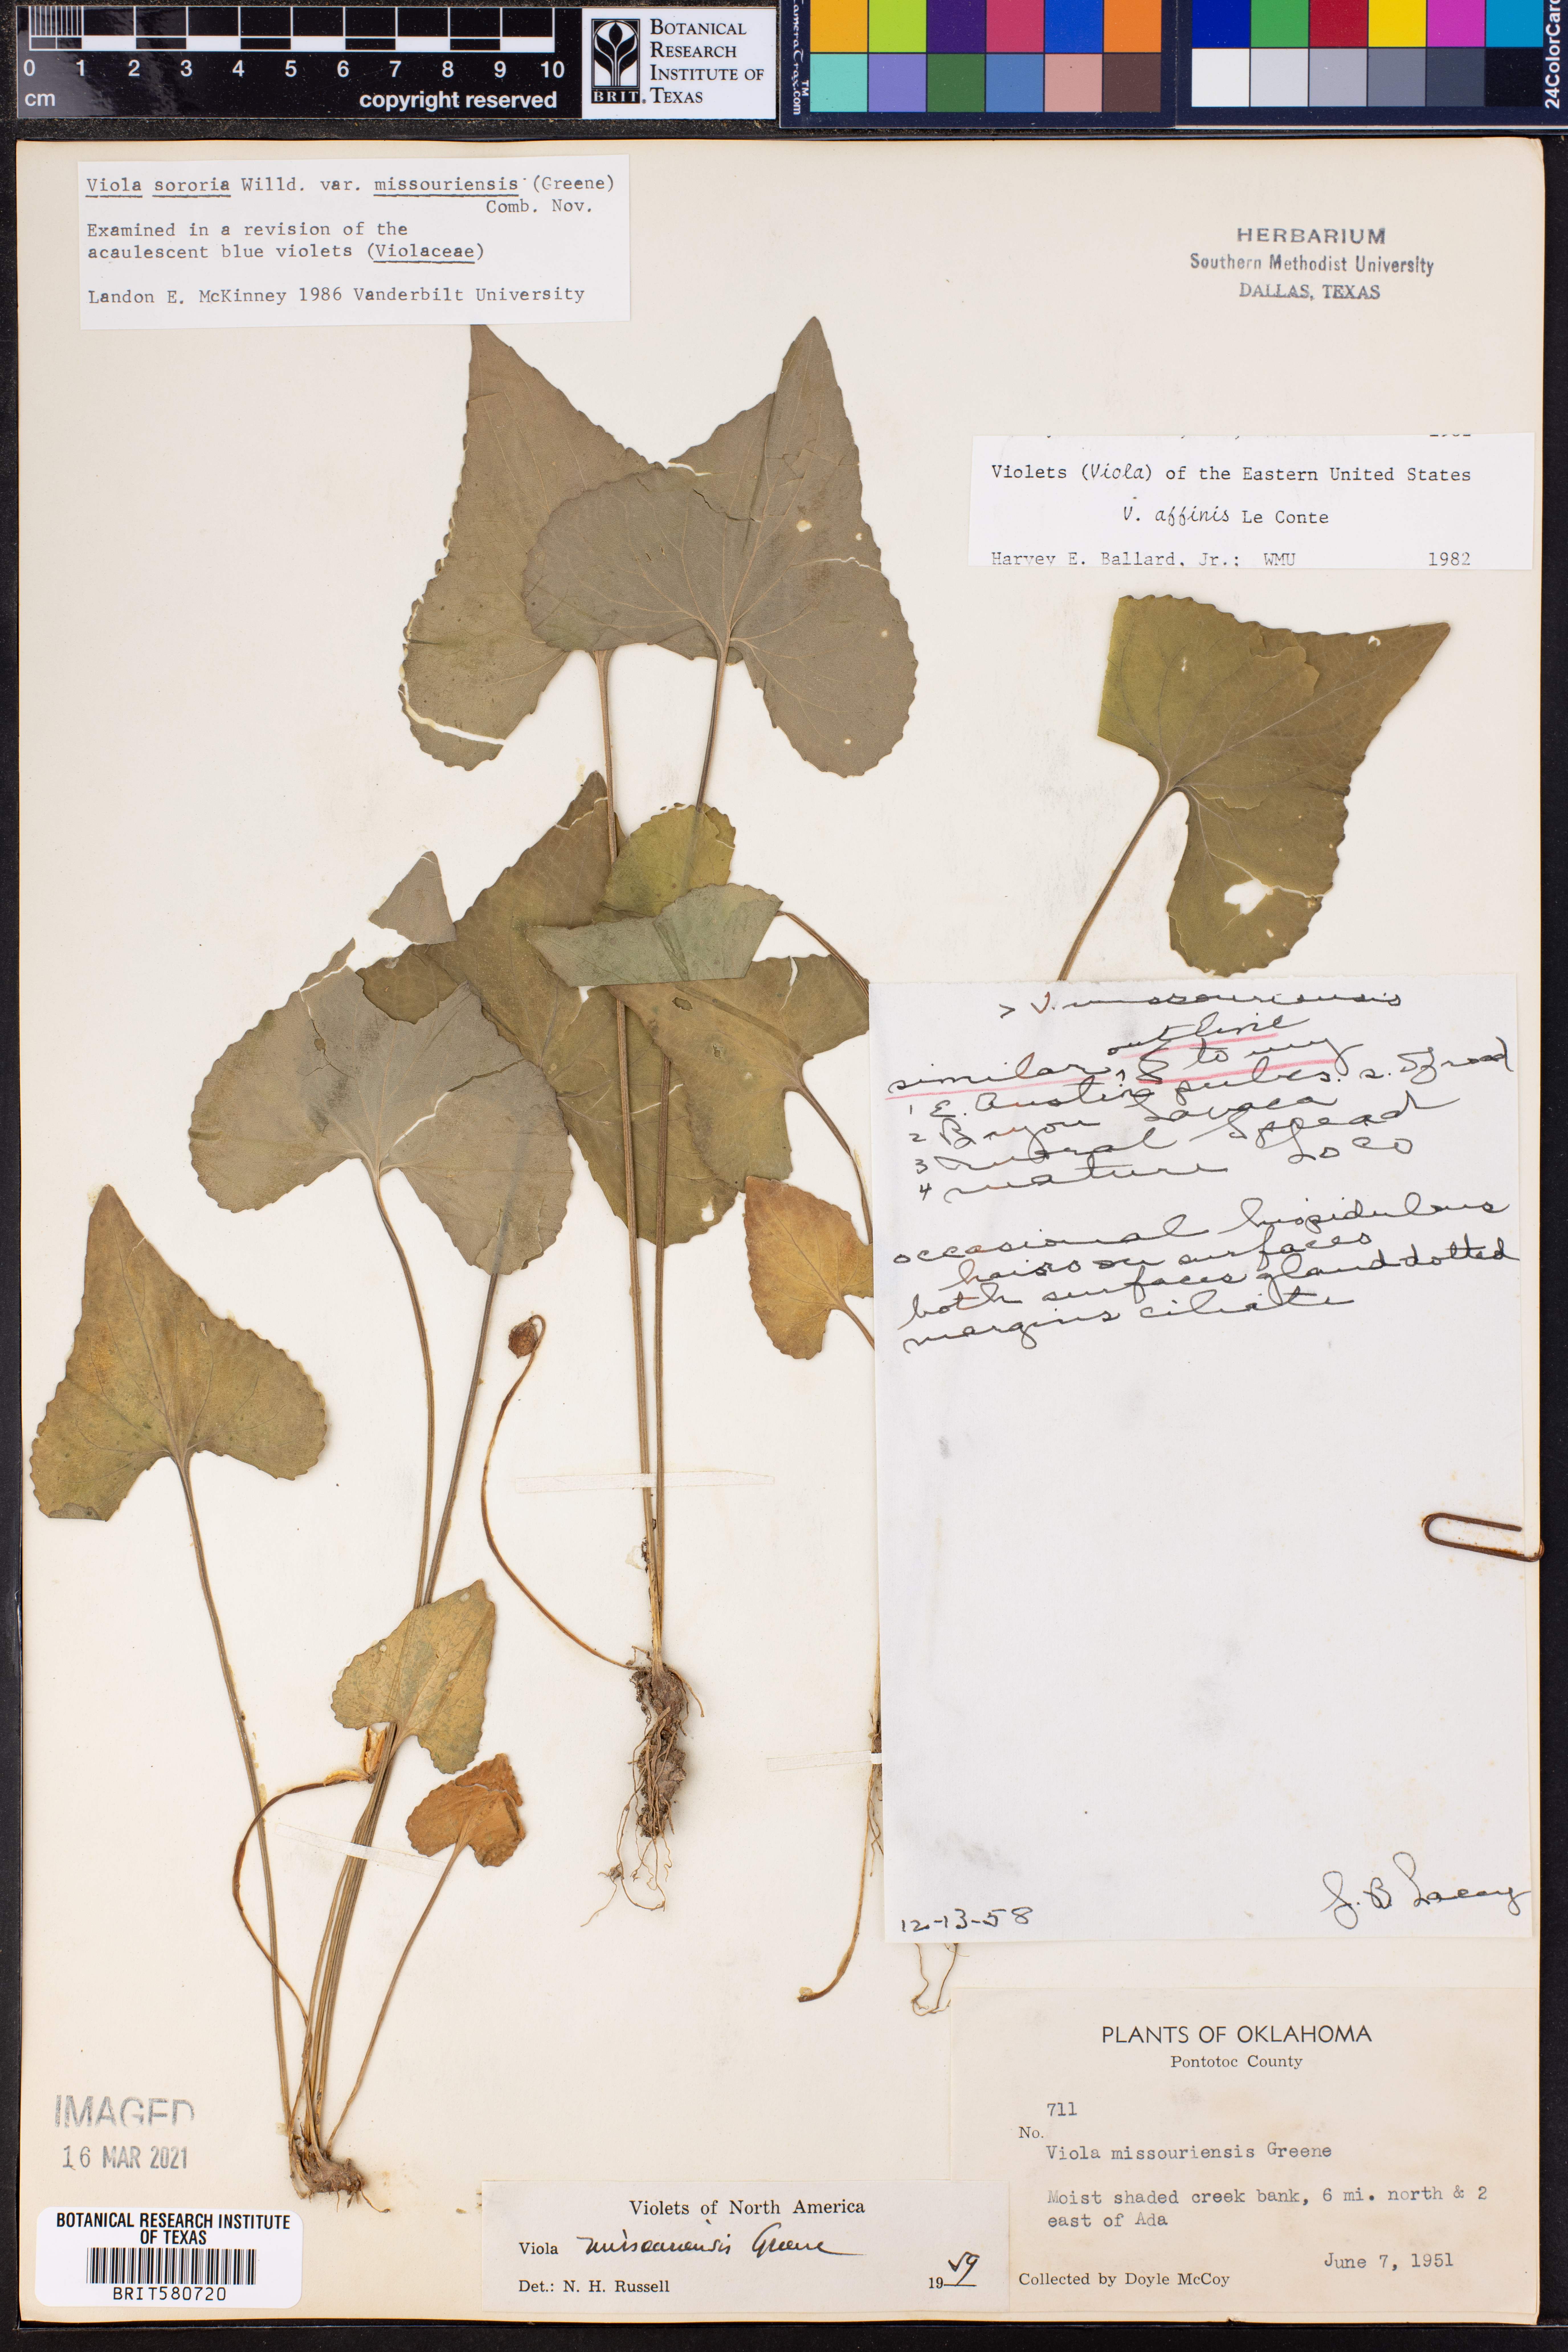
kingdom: Plantae
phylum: Tracheophyta
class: Magnoliopsida
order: Malpighiales
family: Violaceae
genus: Viola
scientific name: Viola missouriensis
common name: Missouri violet
